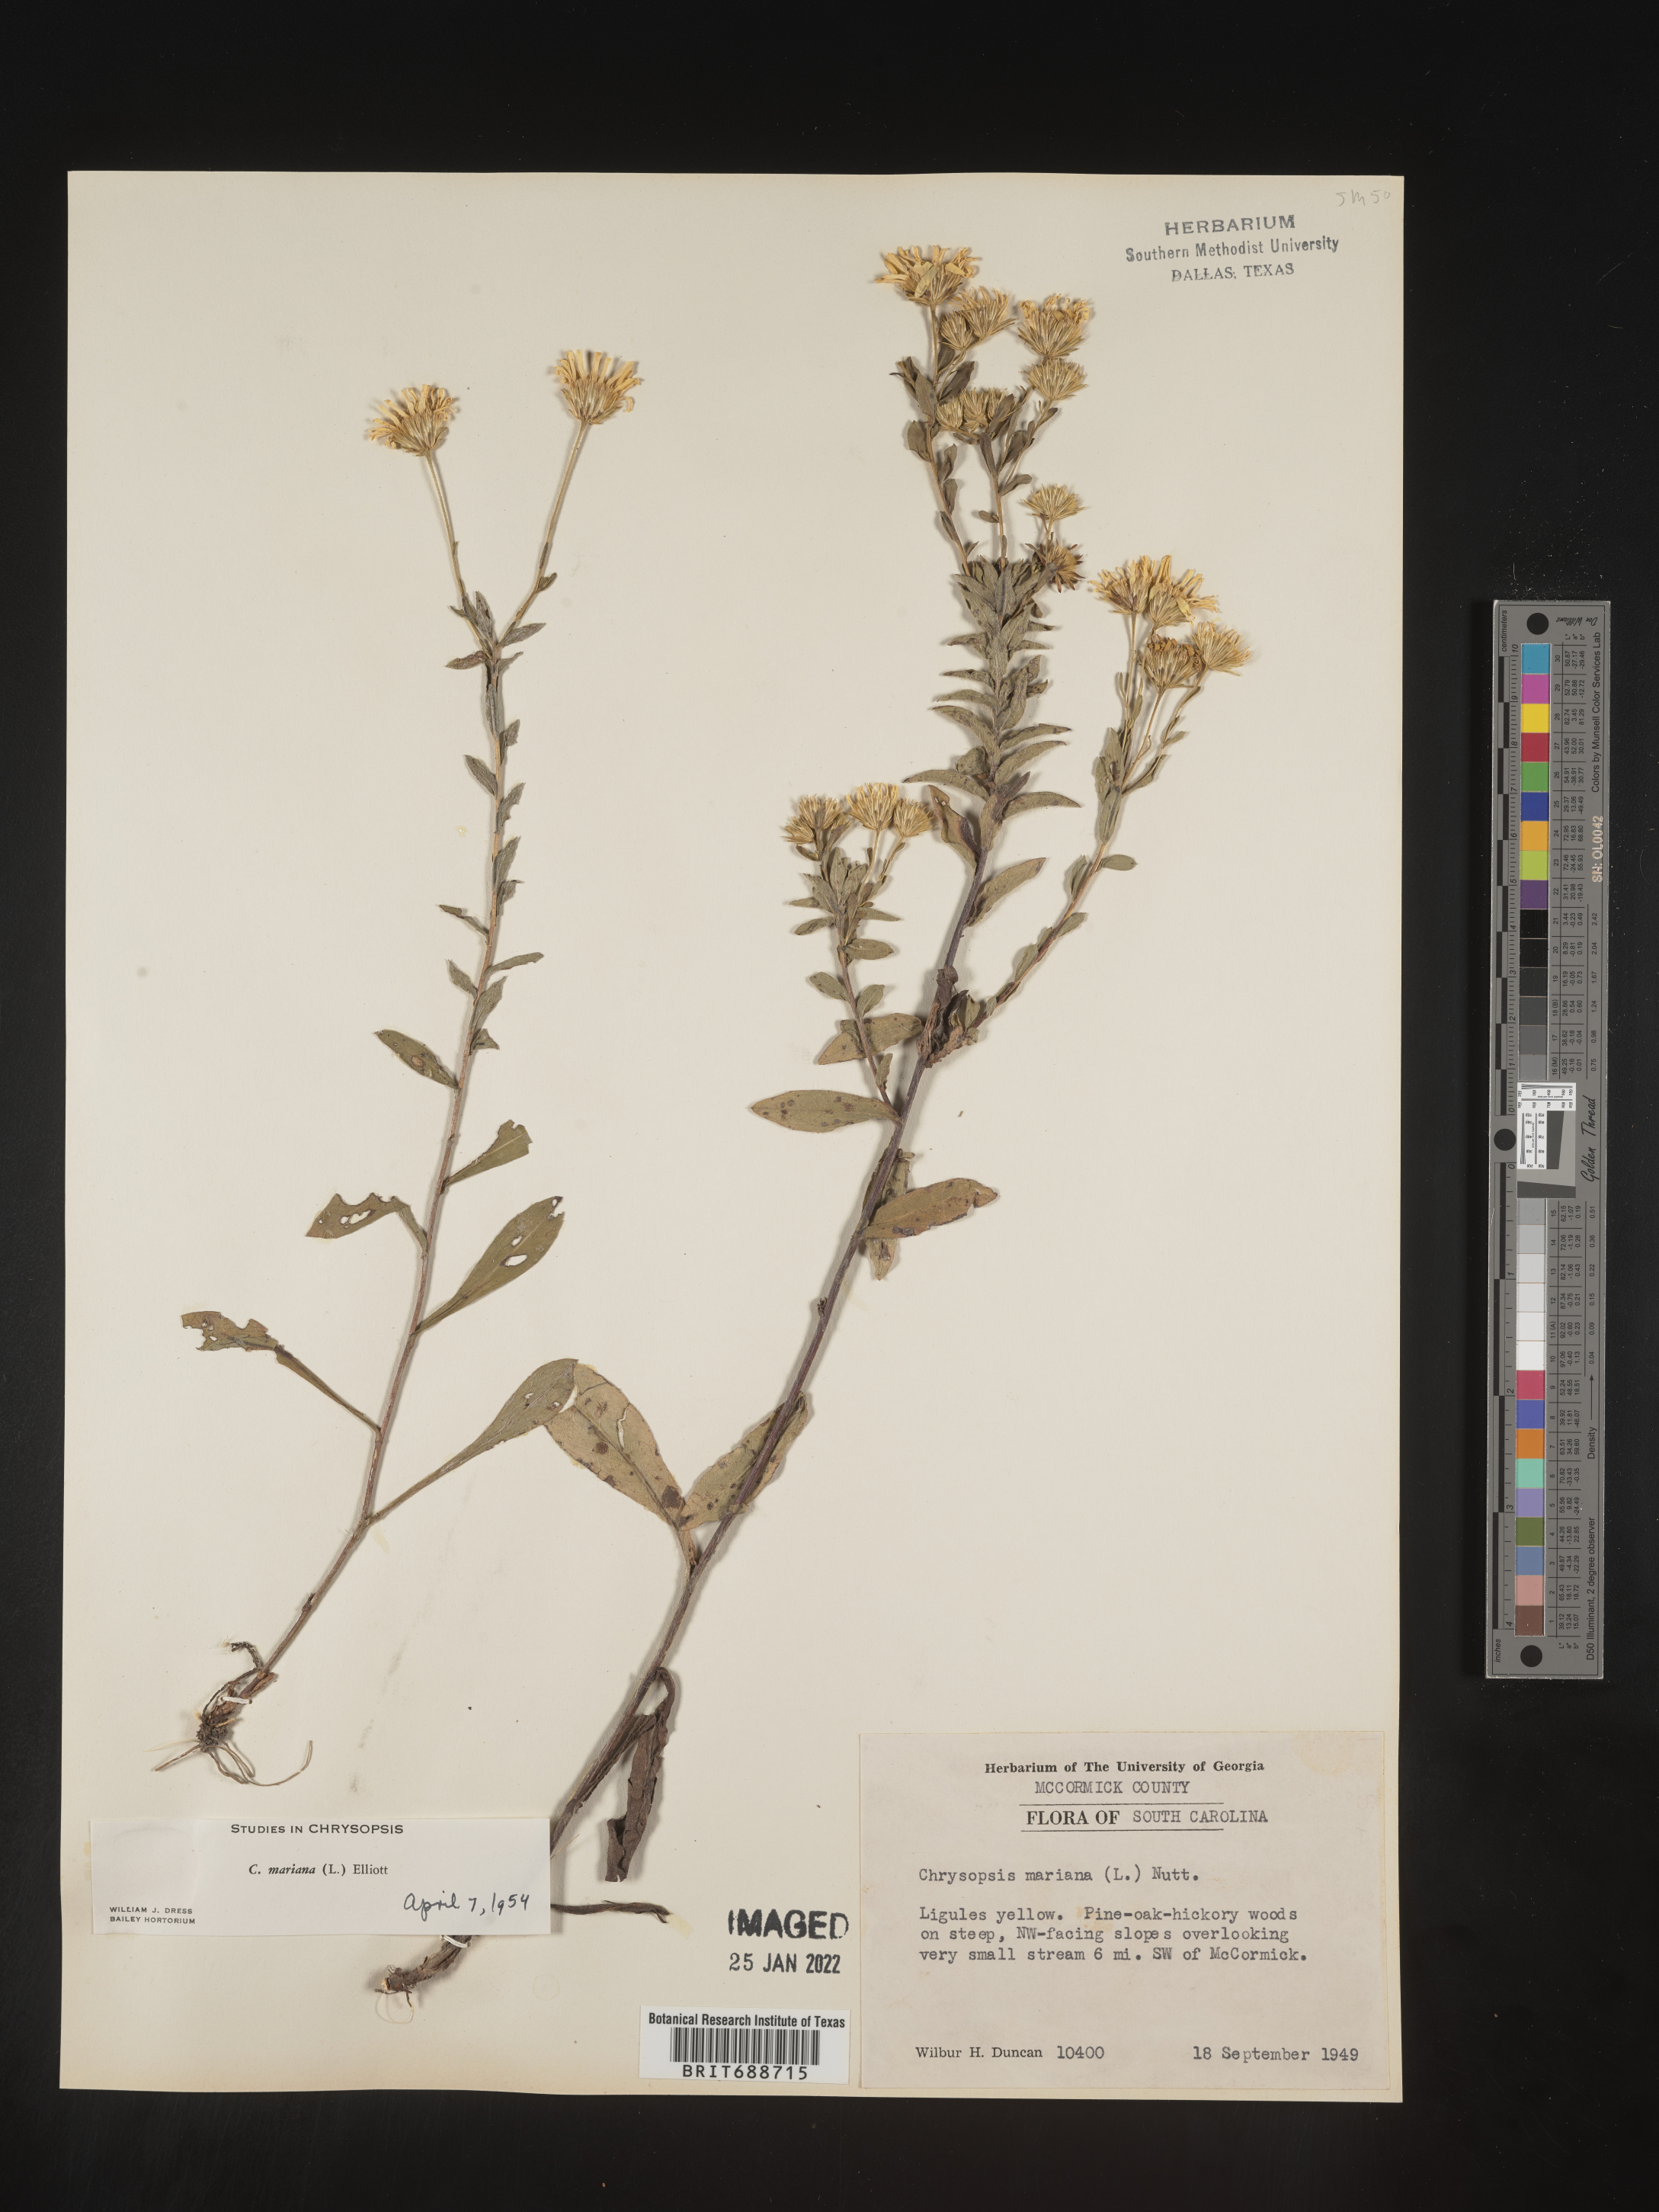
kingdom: Plantae
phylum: Tracheophyta
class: Magnoliopsida
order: Asterales
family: Asteraceae
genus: Chrysopsis
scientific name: Chrysopsis mariana
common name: Maryland golden-aster
